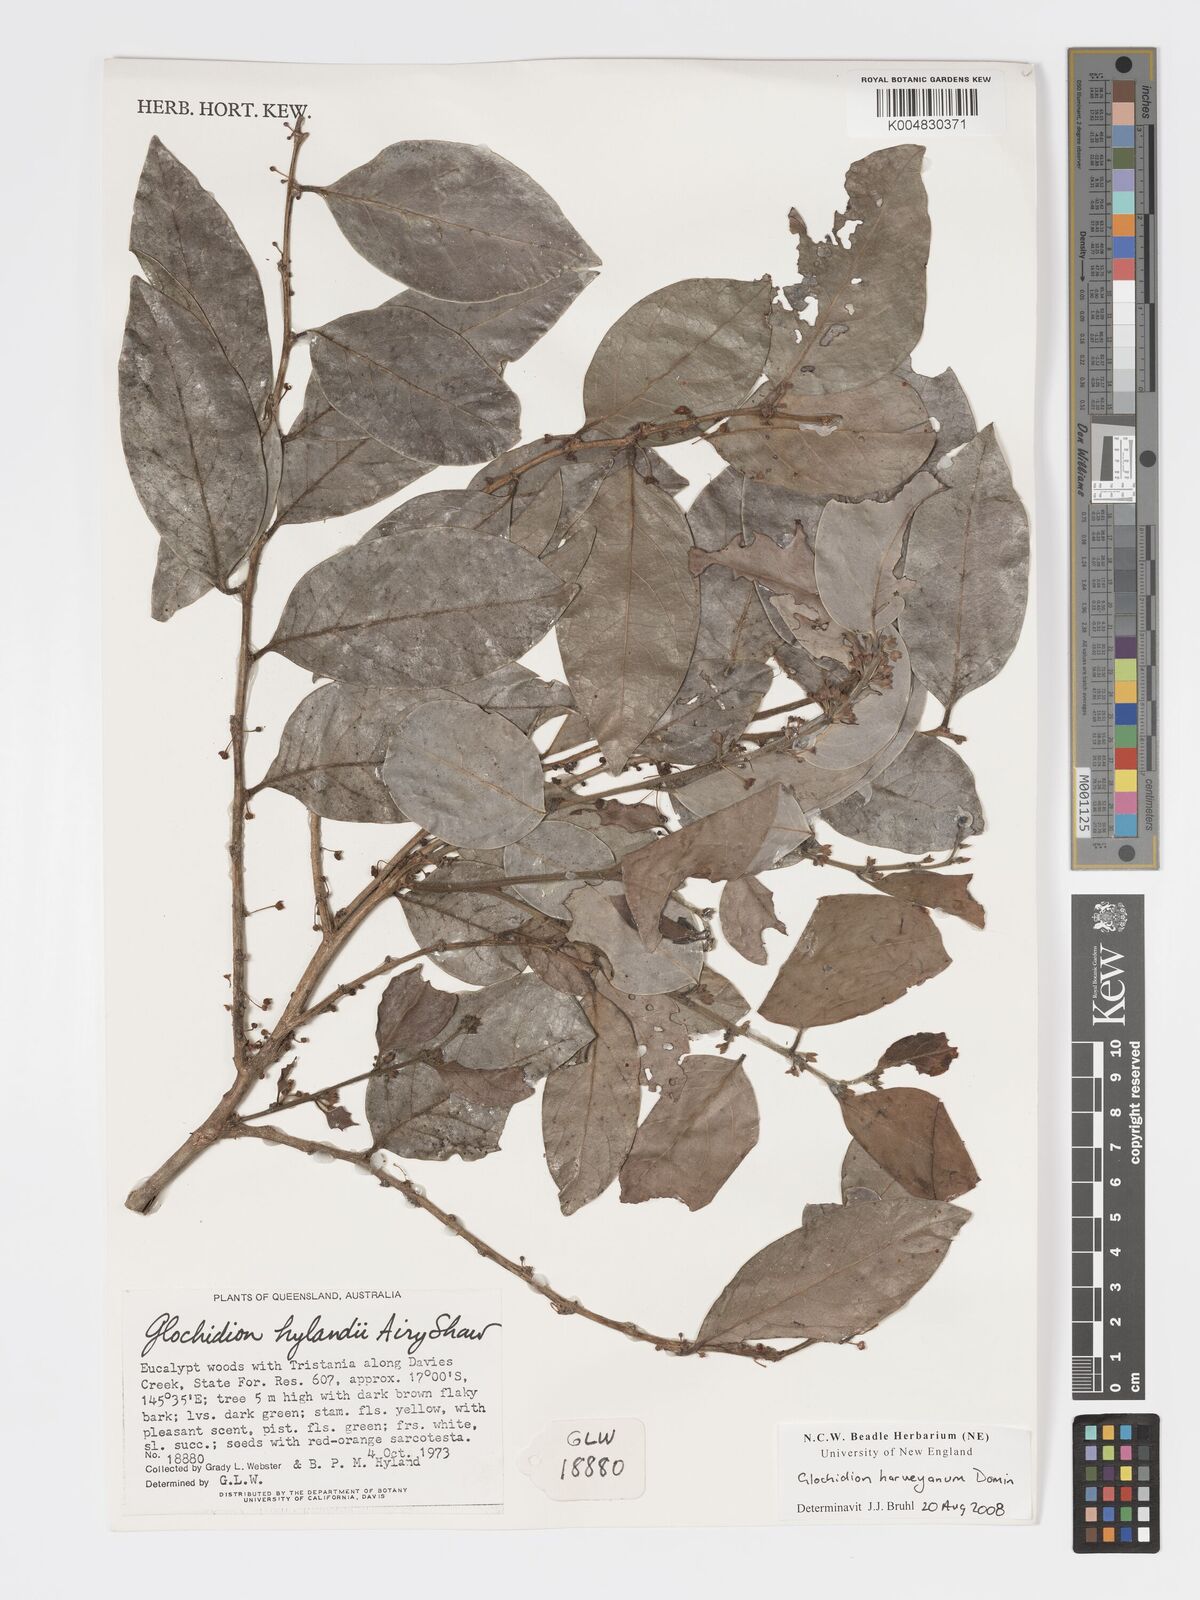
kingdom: Plantae
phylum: Tracheophyta
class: Magnoliopsida
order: Malpighiales
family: Phyllanthaceae
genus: Glochidion
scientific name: Glochidion harveyanum
